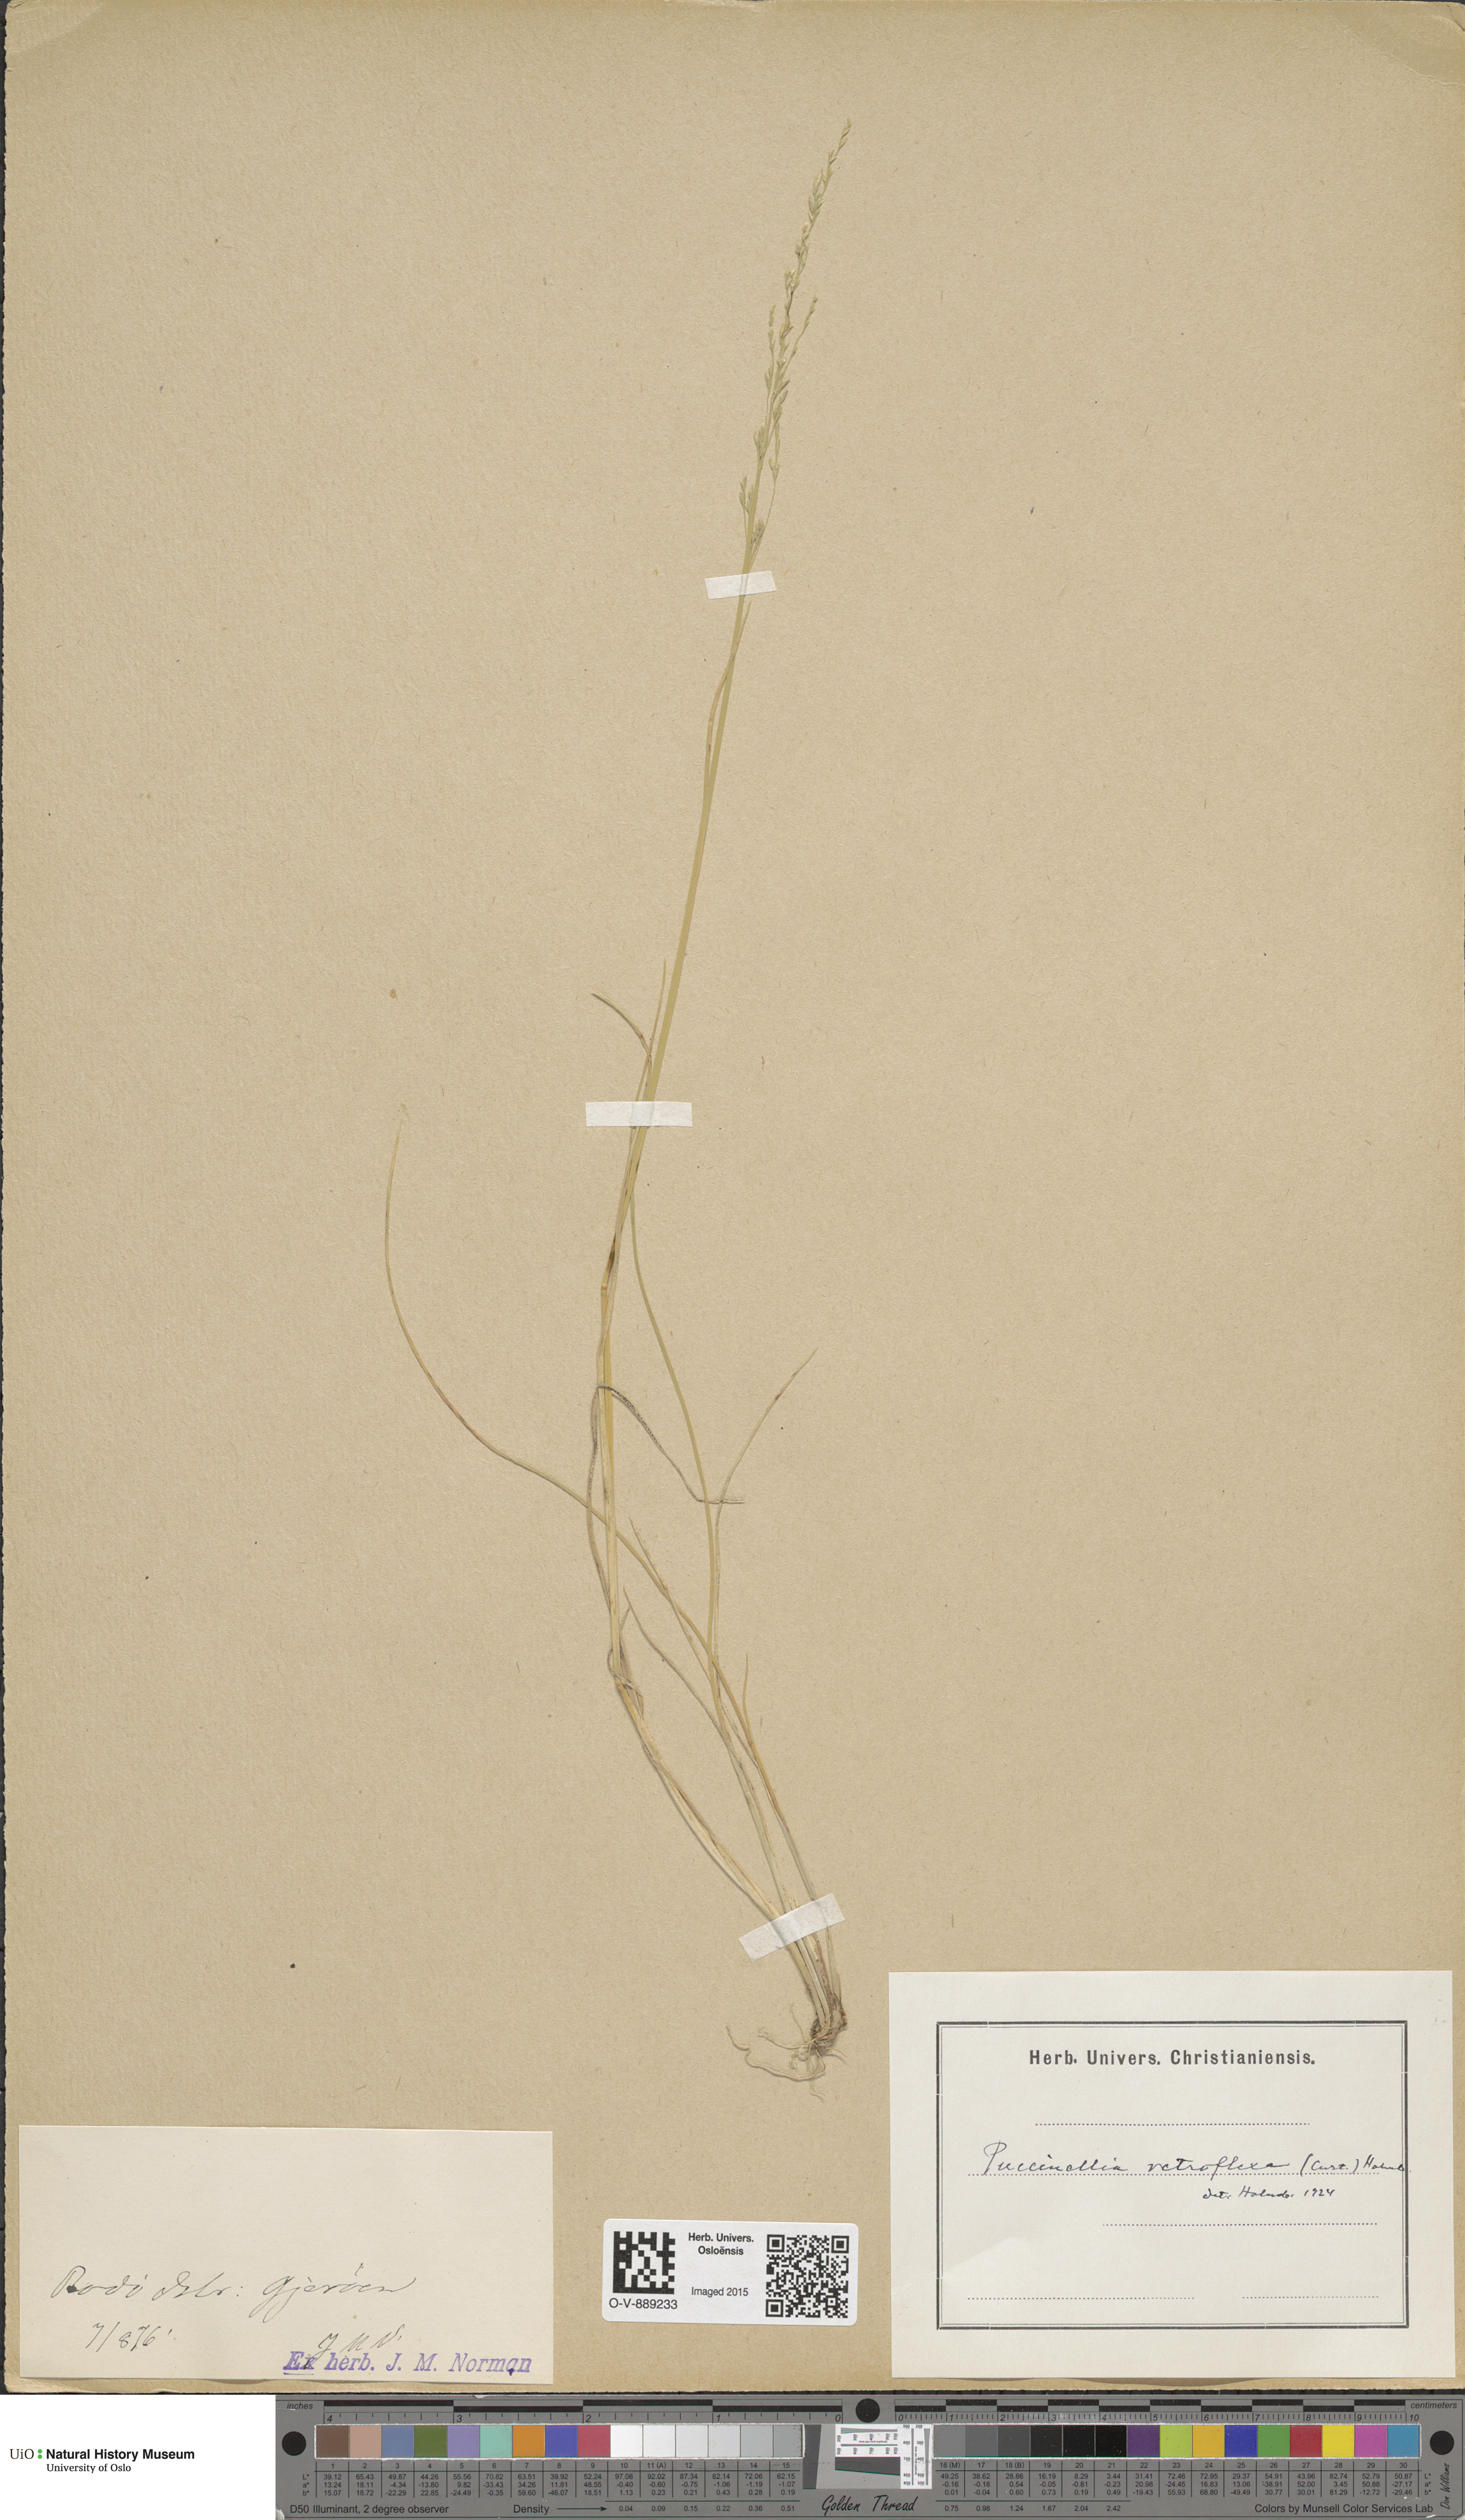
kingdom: Plantae
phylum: Tracheophyta
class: Liliopsida
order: Poales
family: Poaceae
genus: Puccinellia
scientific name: Puccinellia distans
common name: Weeping alkaligrass
